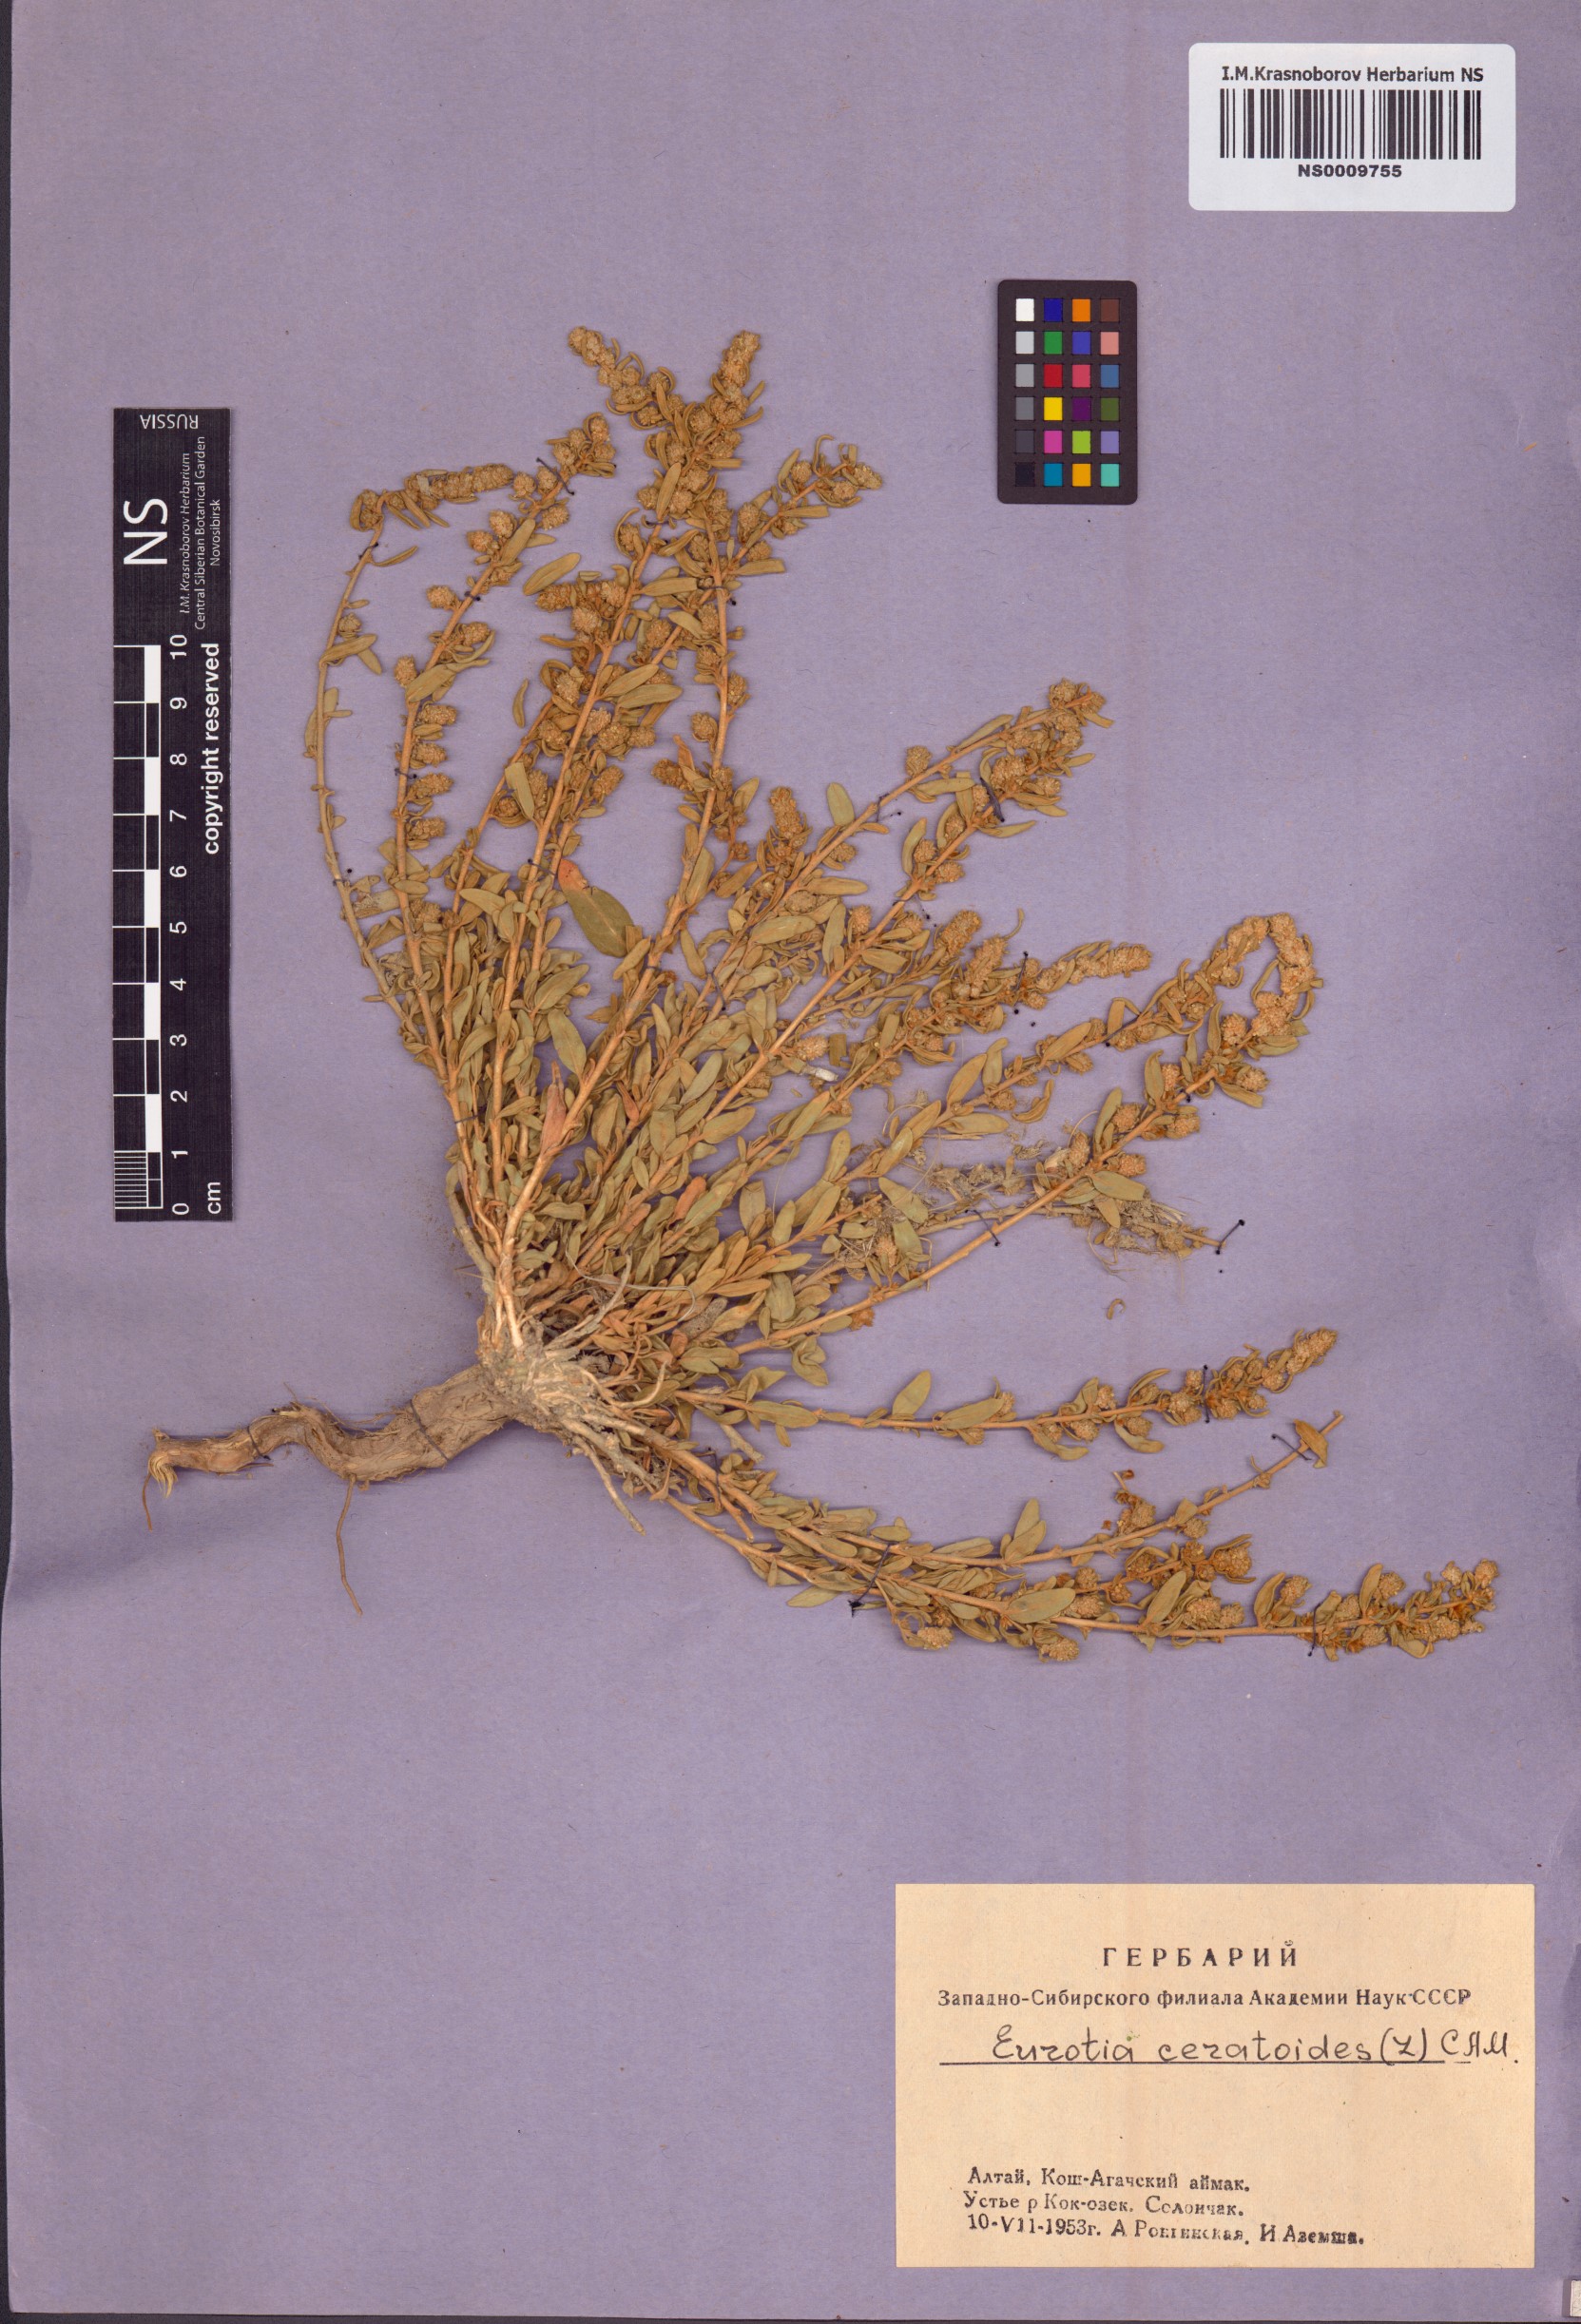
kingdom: Plantae
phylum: Tracheophyta
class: Magnoliopsida
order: Caryophyllales
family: Amaranthaceae
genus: Krascheninnikovia
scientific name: Krascheninnikovia ceratoides
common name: Pamirian winterfat
